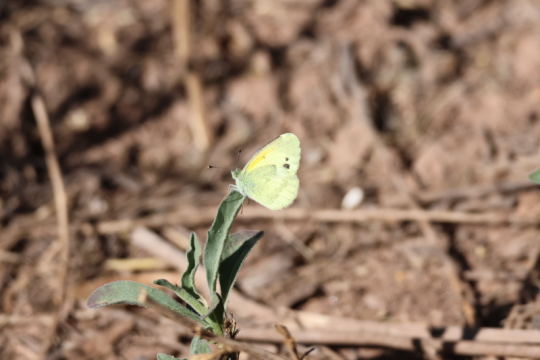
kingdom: Animalia
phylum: Arthropoda
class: Insecta
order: Lepidoptera
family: Pieridae
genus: Nathalis
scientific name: Nathalis iole
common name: Dainty Sulphur
